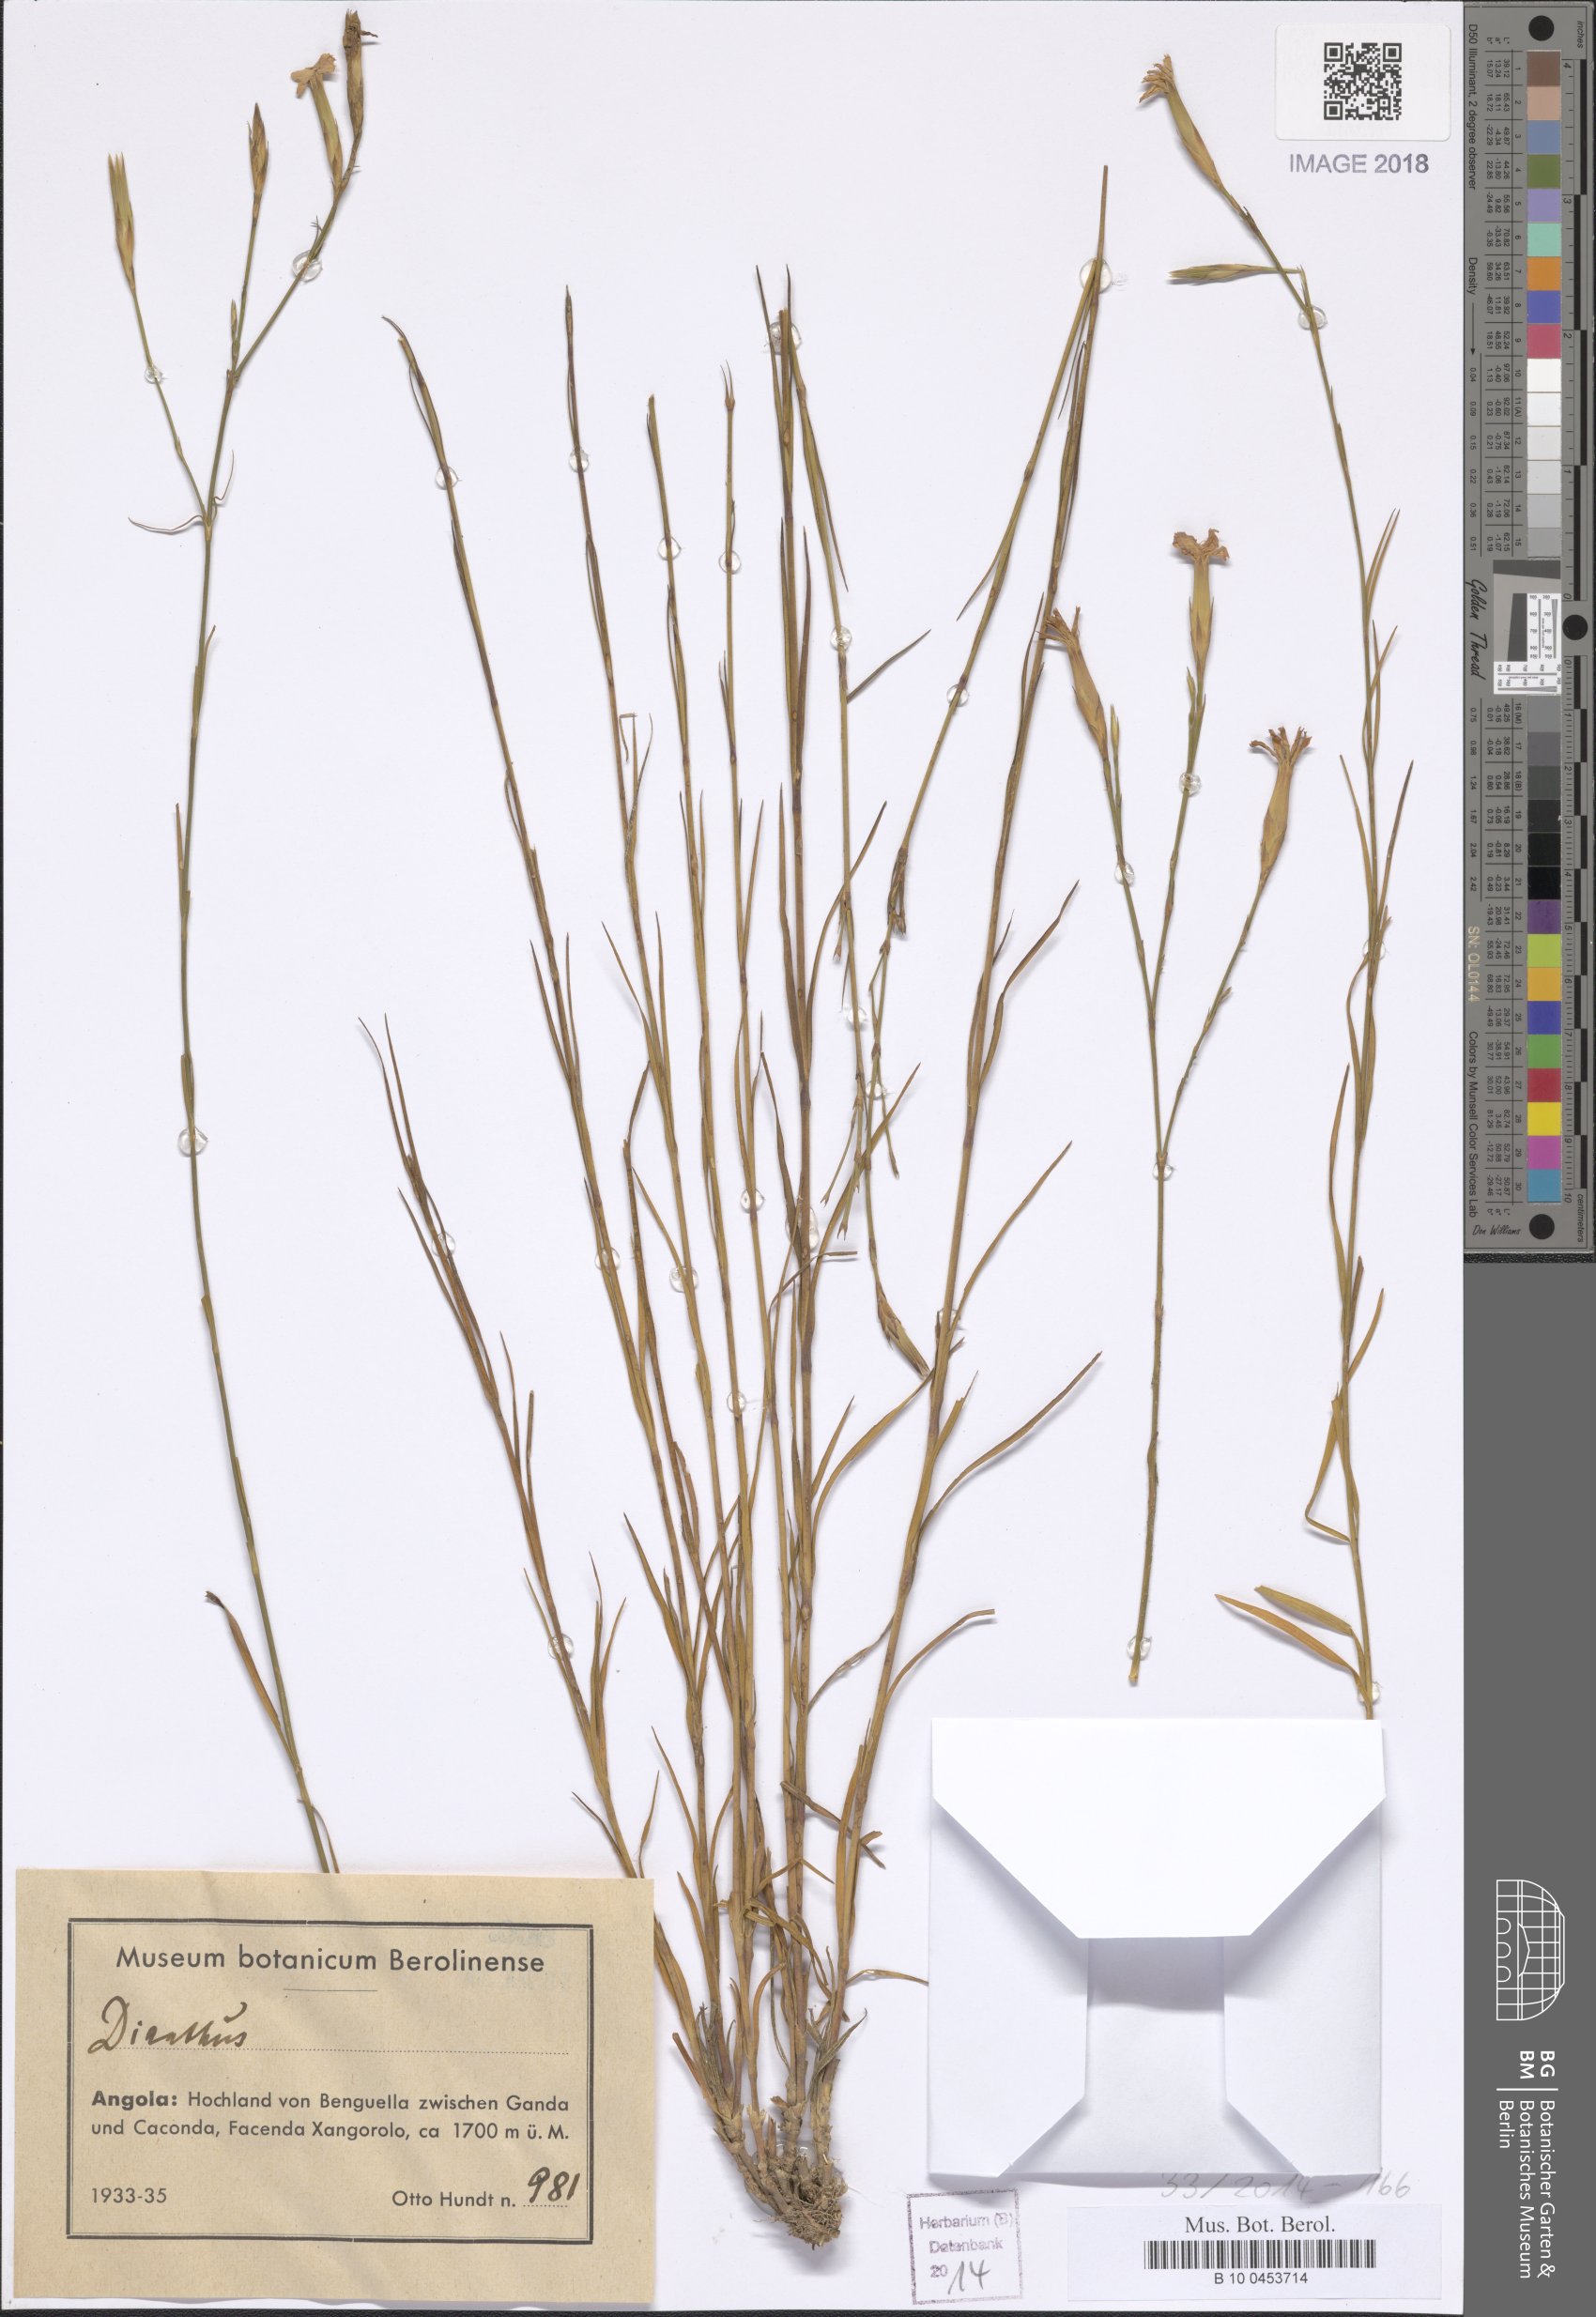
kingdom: Plantae
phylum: Tracheophyta
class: Magnoliopsida
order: Caryophyllales
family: Caryophyllaceae
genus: Dianthus
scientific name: Dianthus
